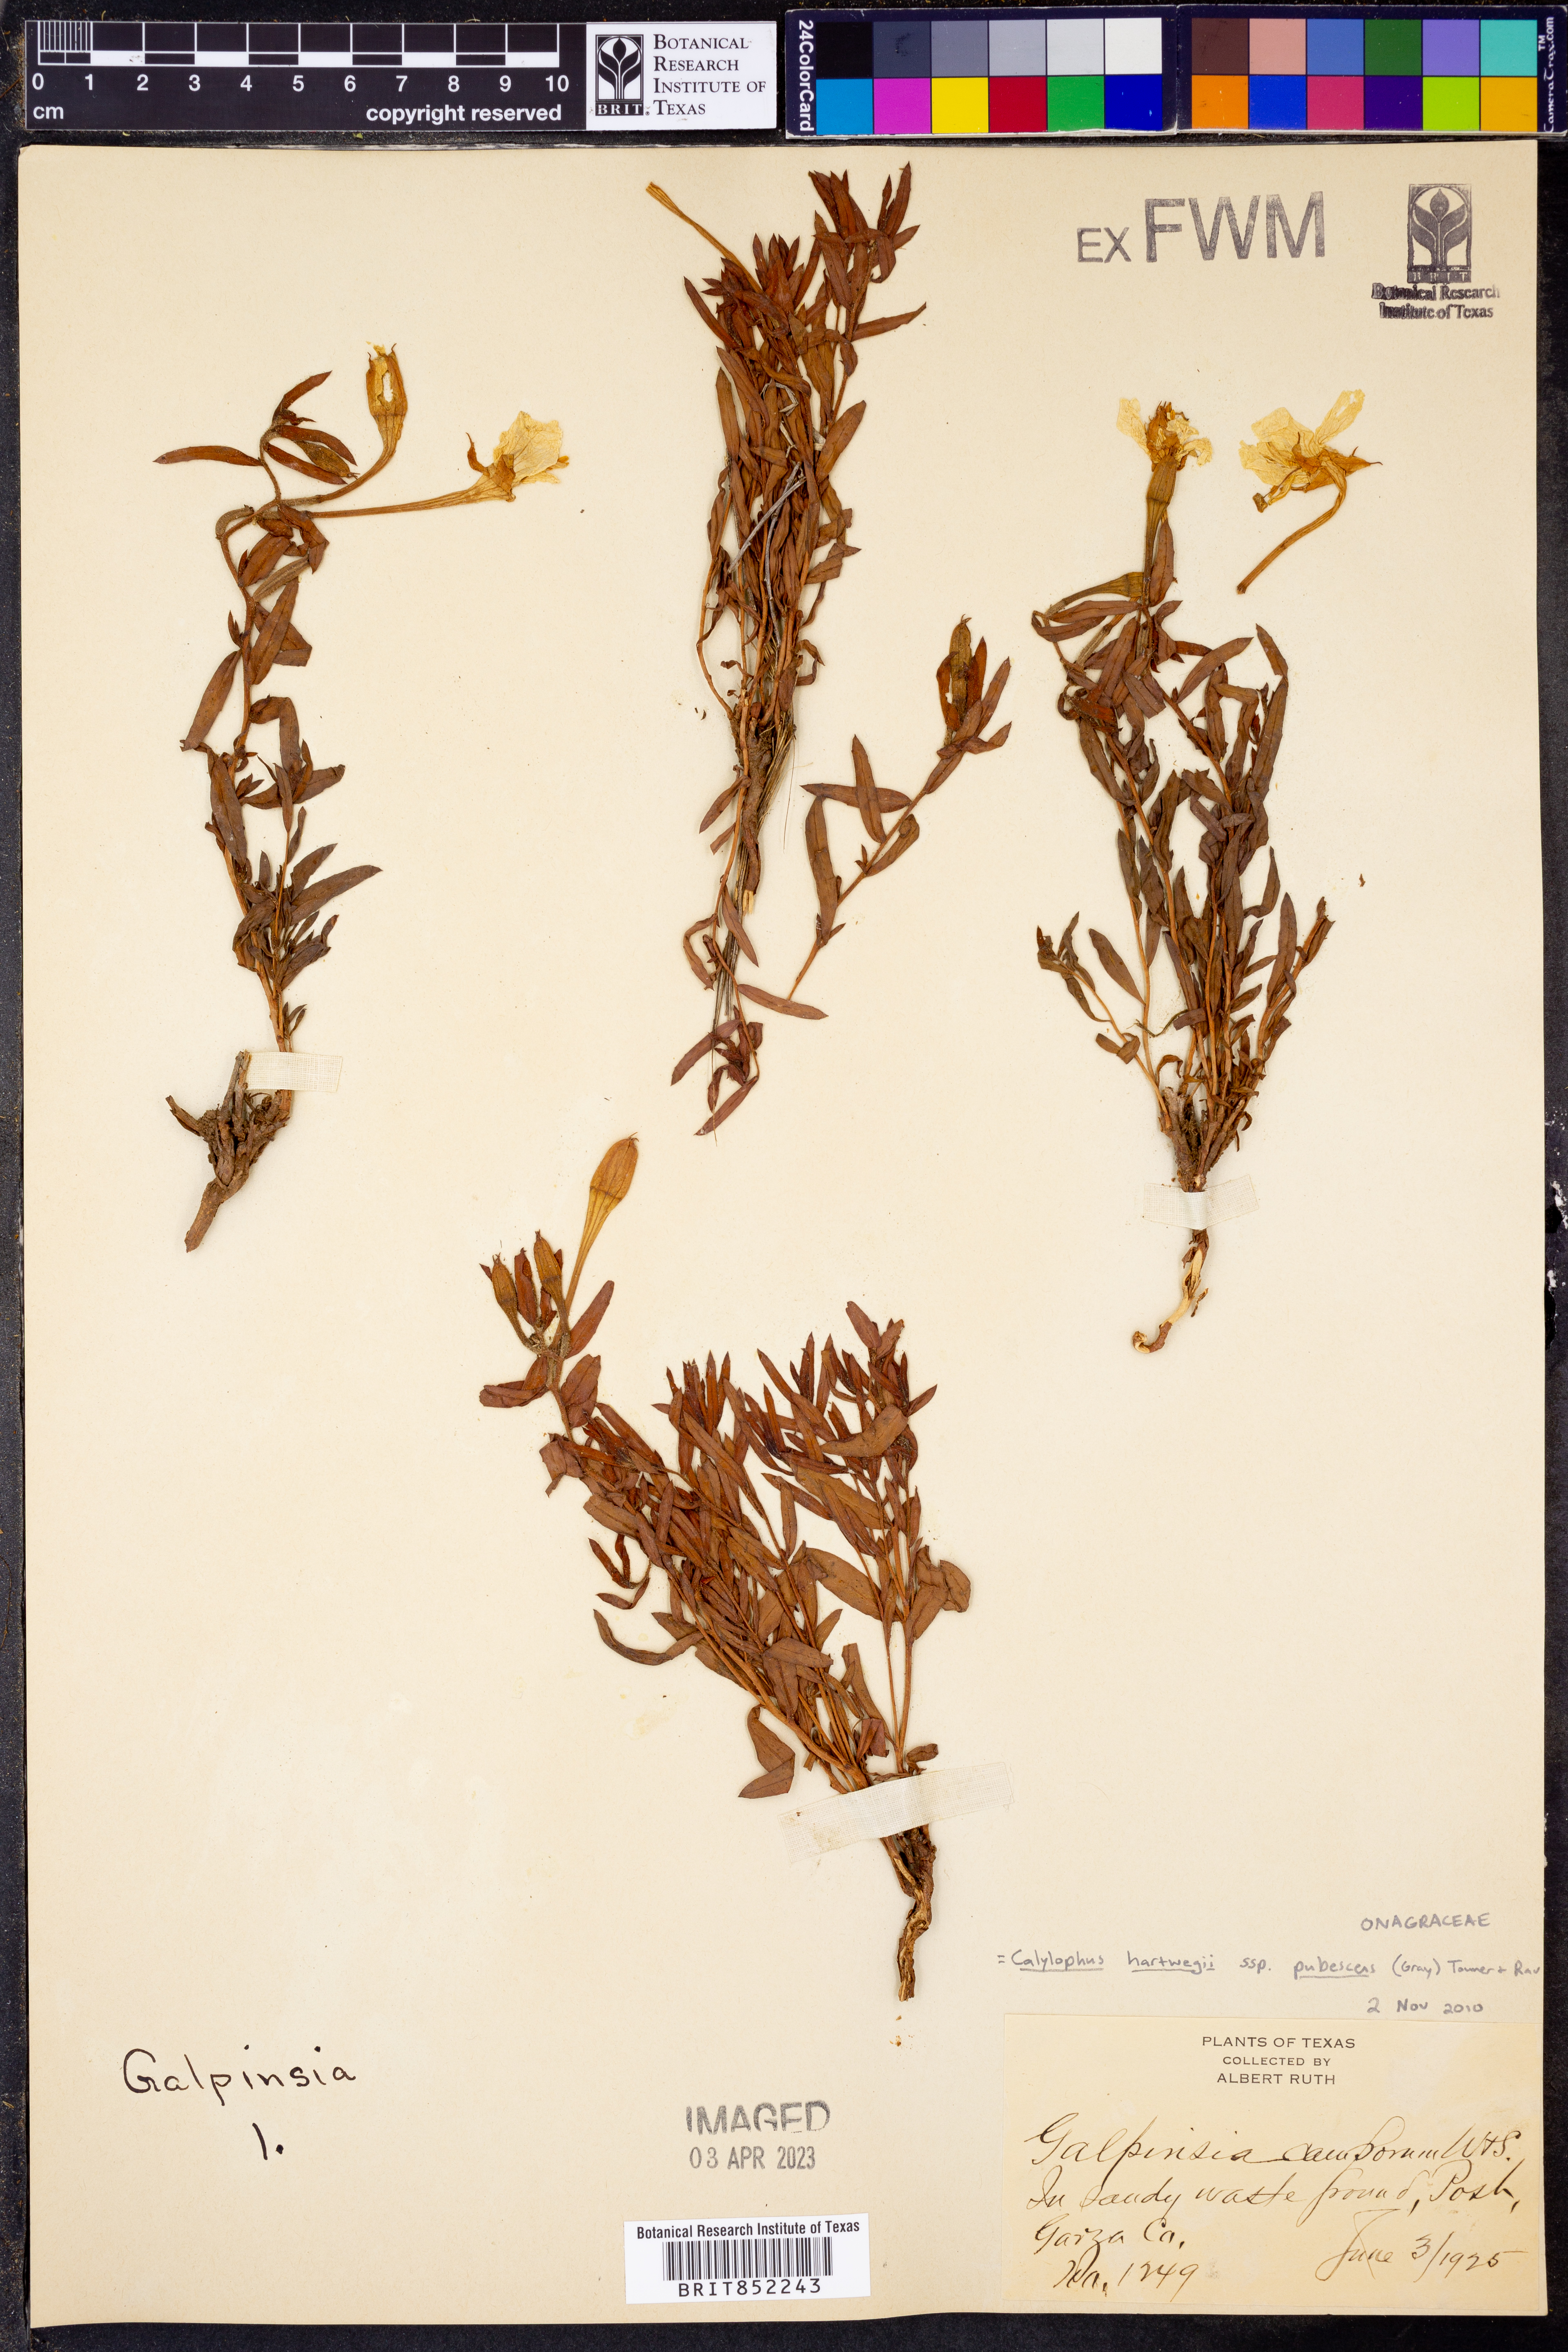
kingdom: Plantae
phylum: Tracheophyta
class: Magnoliopsida
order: Myrtales
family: Onagraceae
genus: Oenothera
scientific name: Oenothera hartwegii
